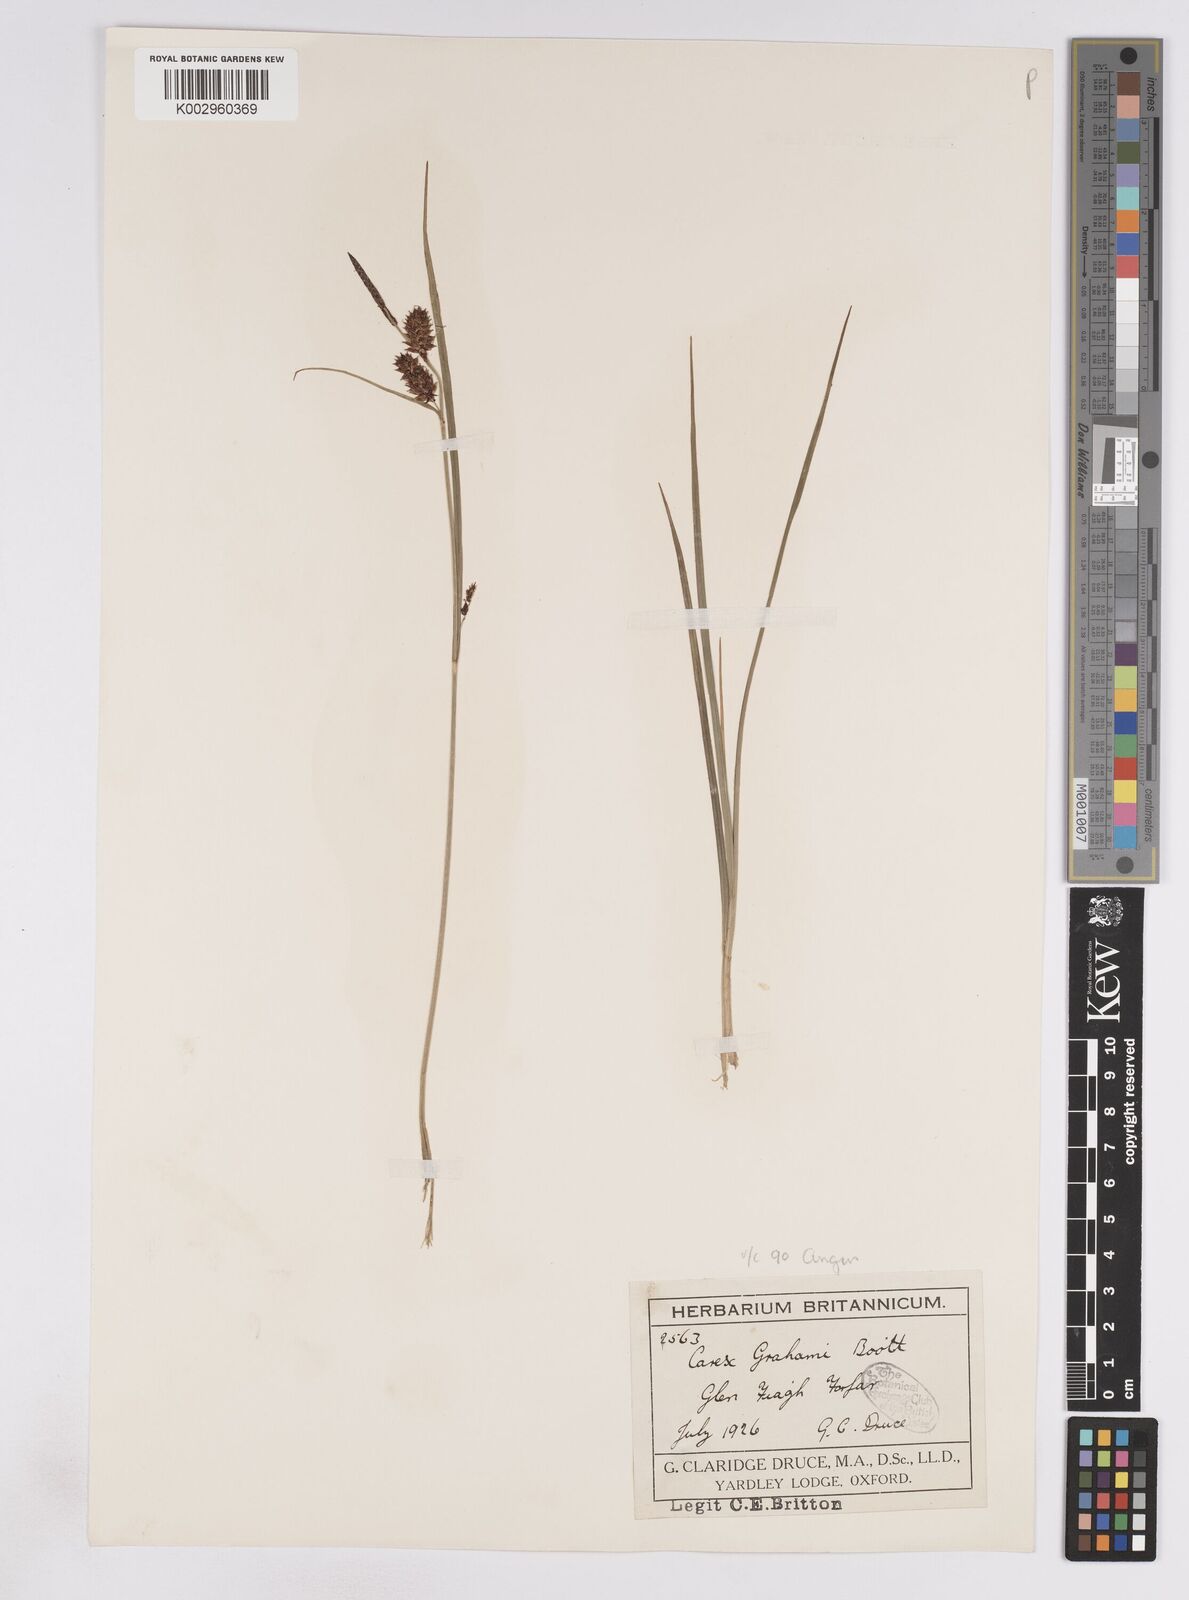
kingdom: Plantae
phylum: Tracheophyta
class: Liliopsida
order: Poales
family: Cyperaceae
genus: Carex
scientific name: Carex vesicaria
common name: Bladder-sedge
